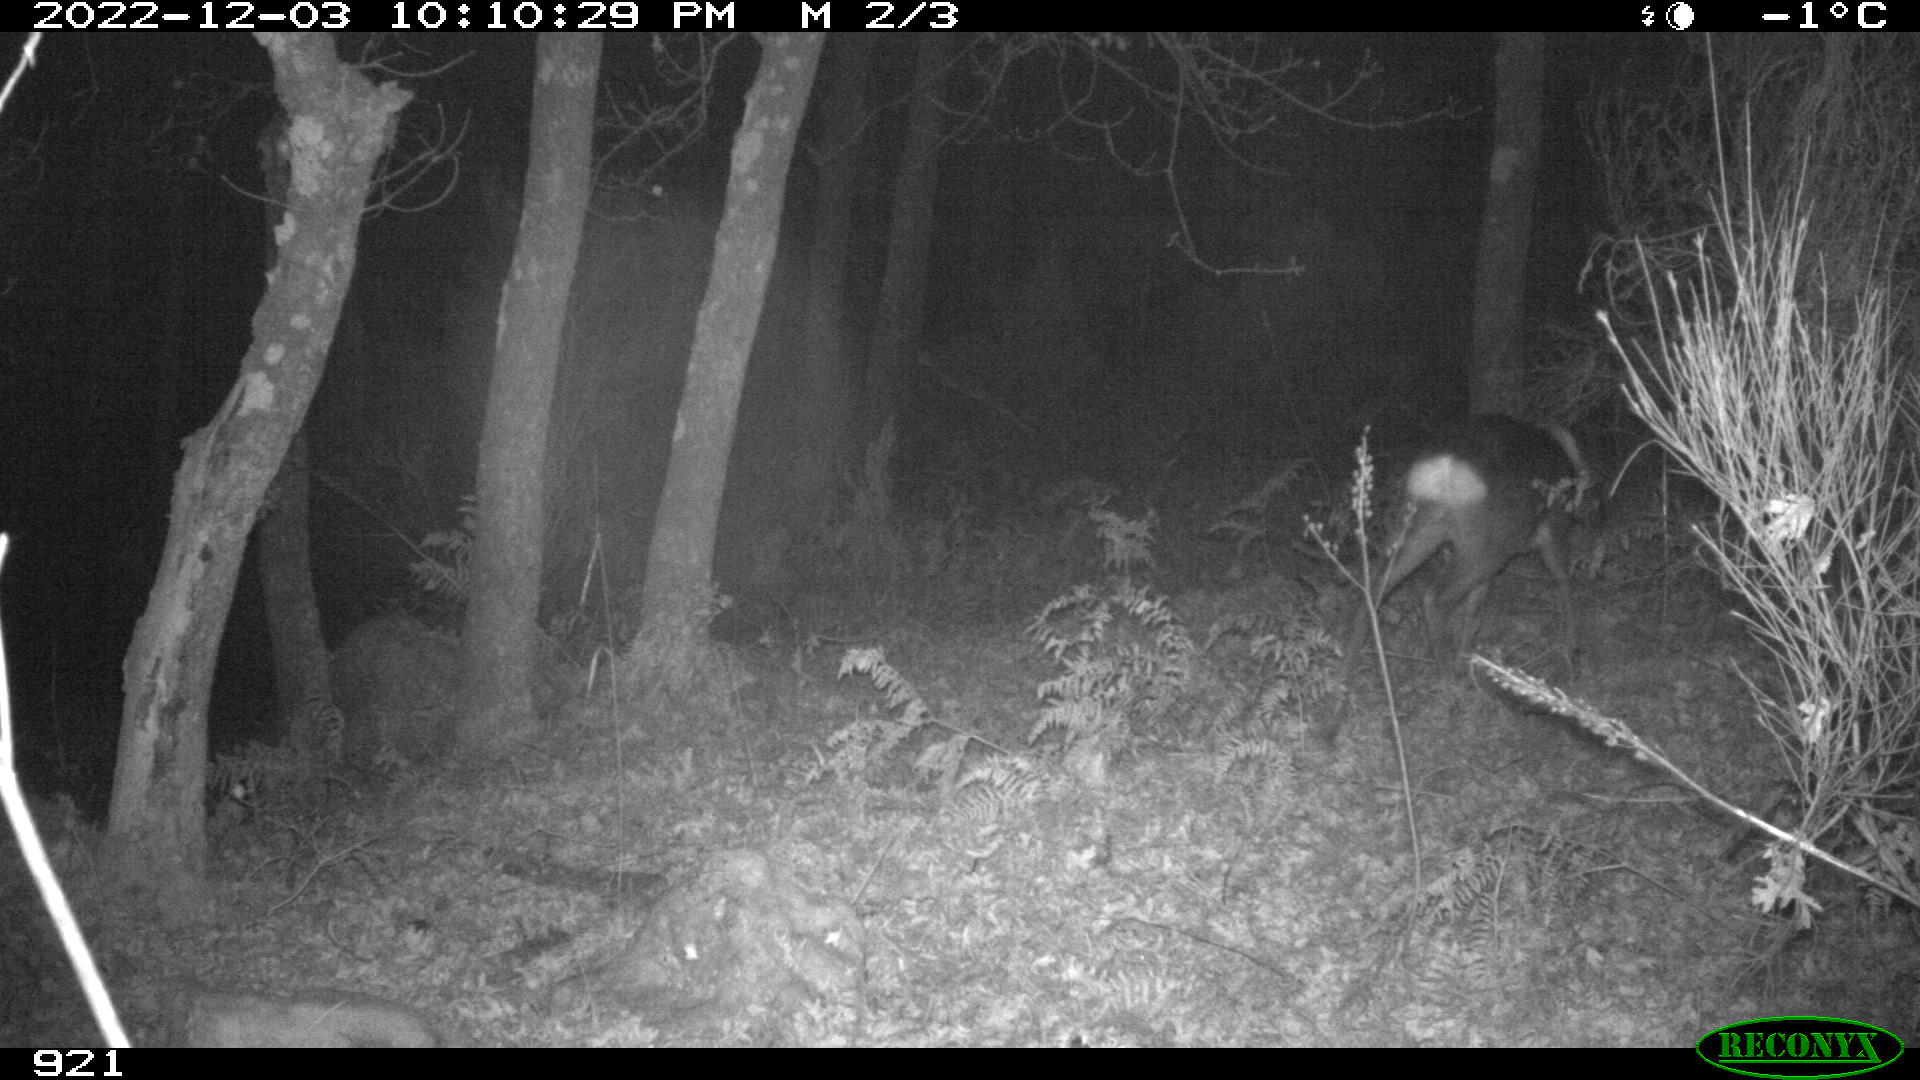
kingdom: Animalia
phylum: Chordata
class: Mammalia
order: Artiodactyla
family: Cervidae
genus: Capreolus
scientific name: Capreolus capreolus
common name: Western roe deer
